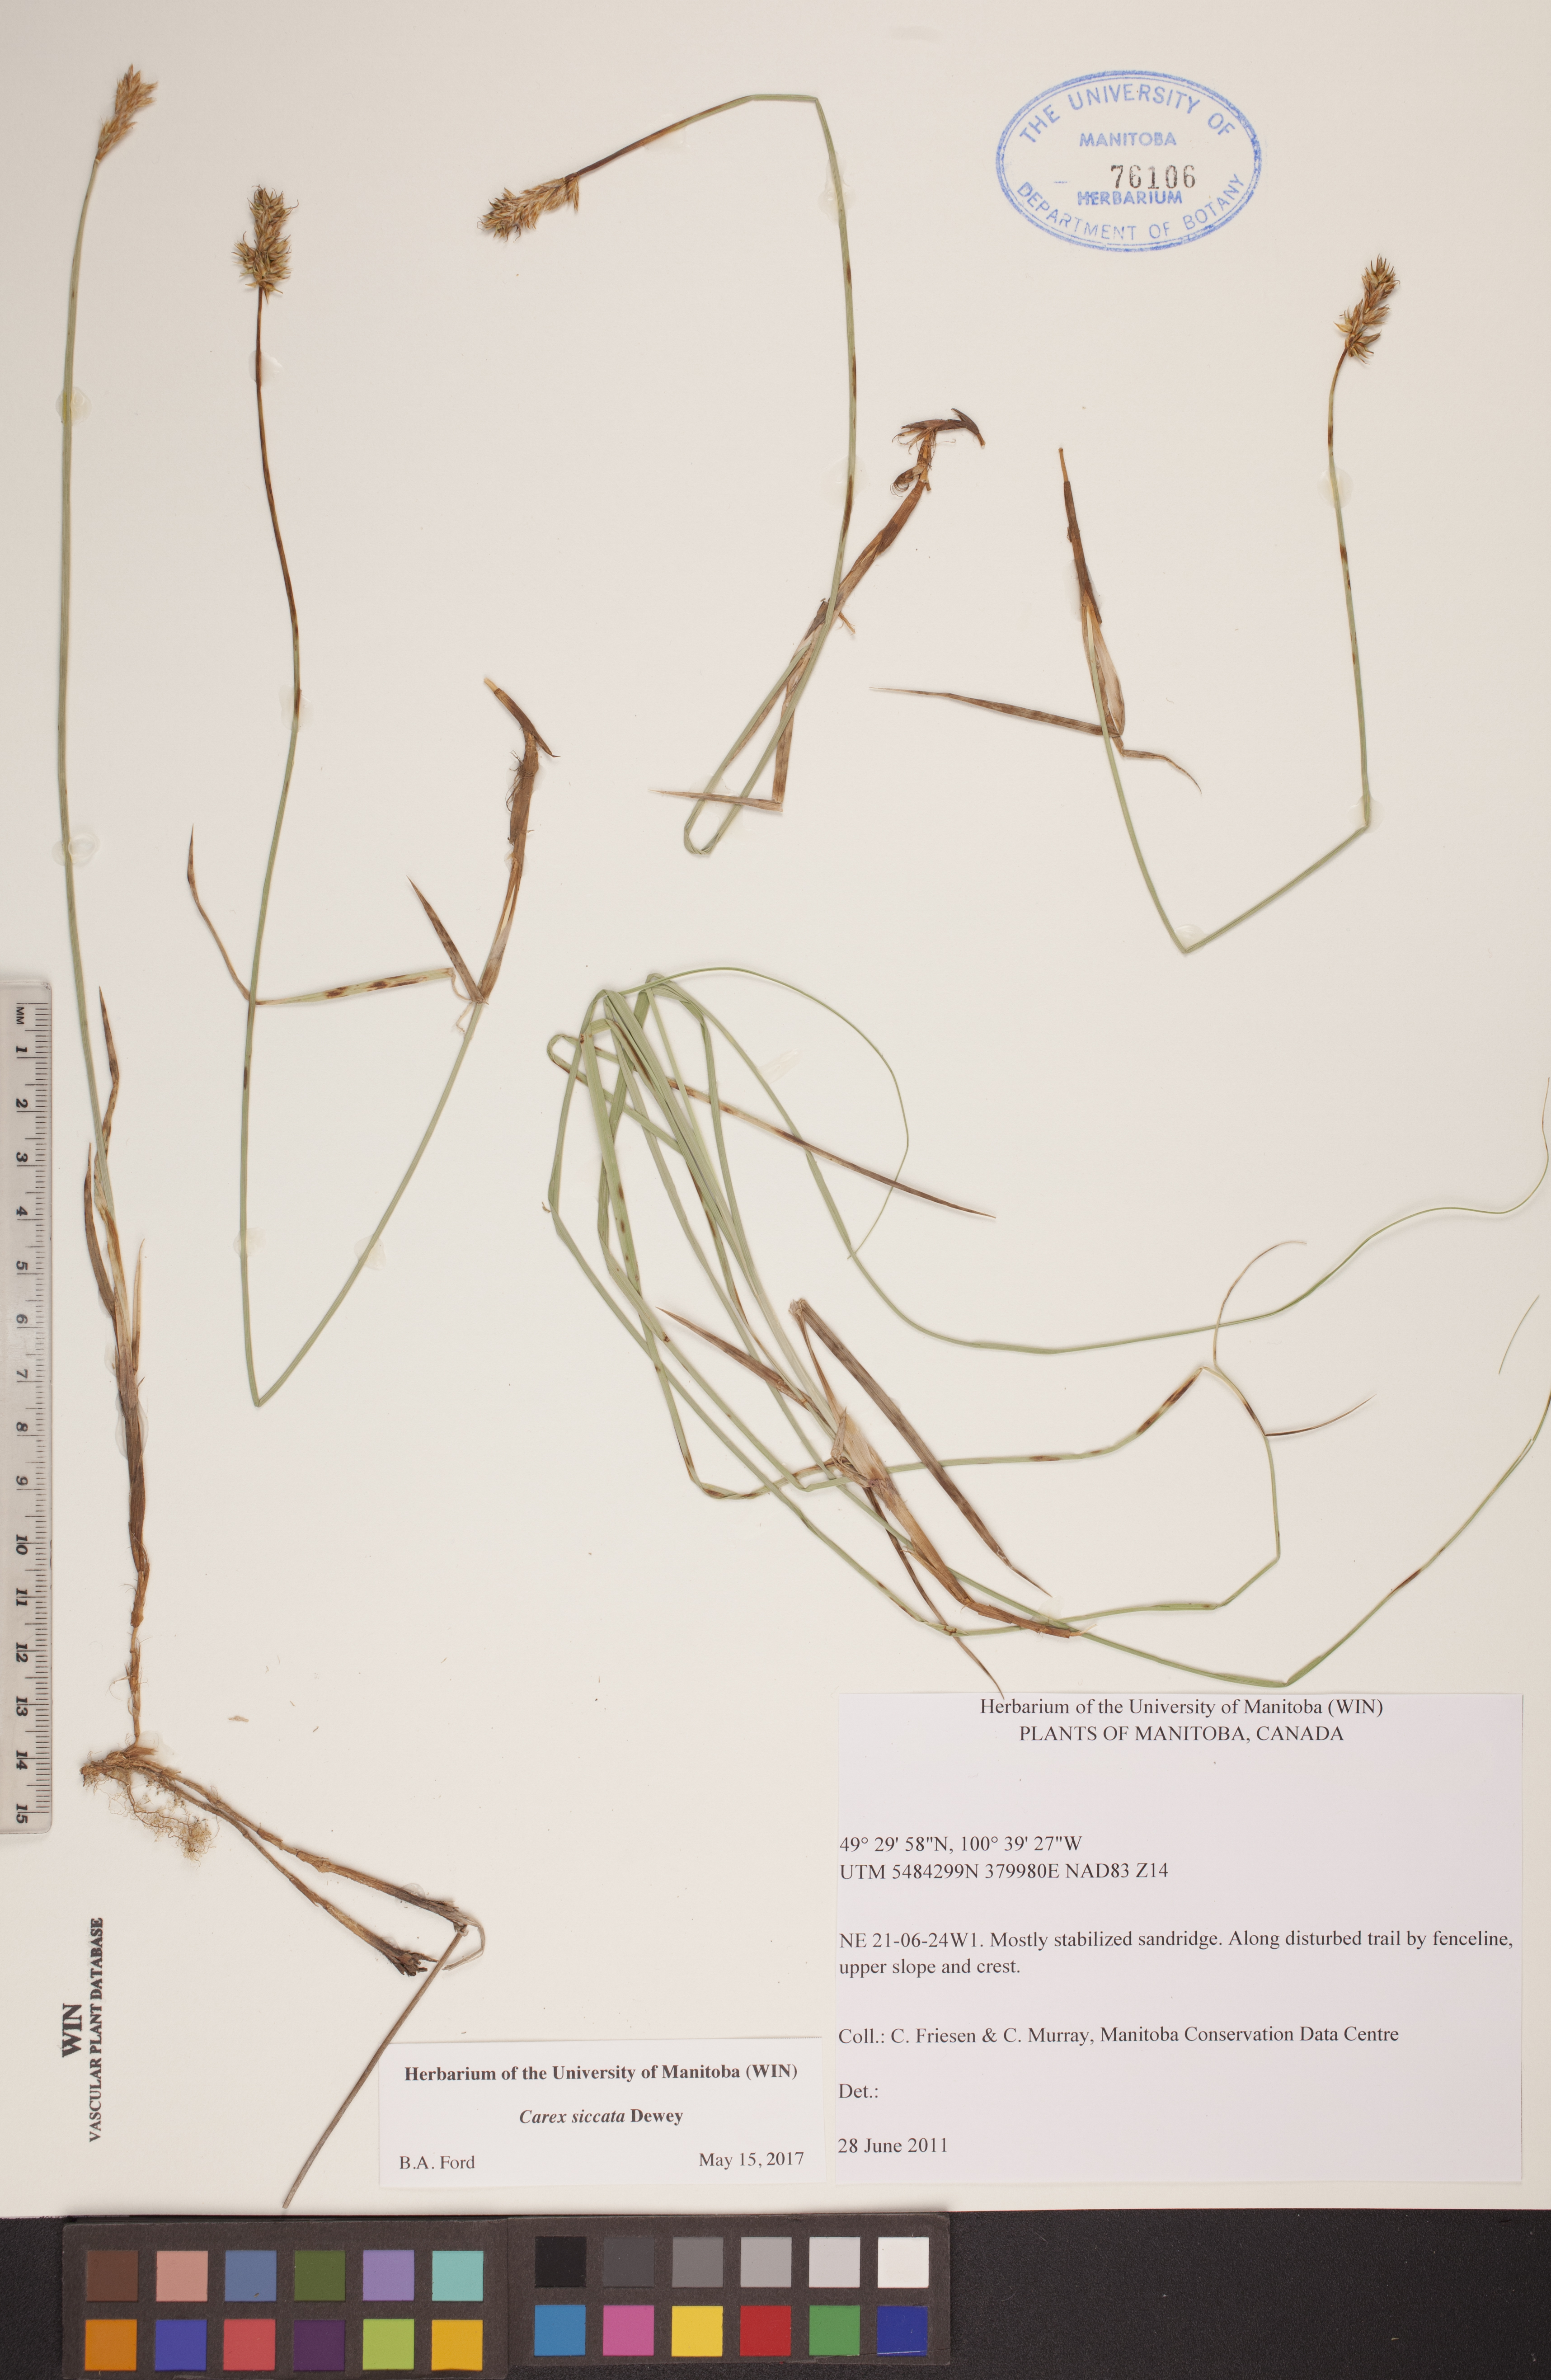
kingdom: Plantae
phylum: Tracheophyta
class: Liliopsida
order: Poales
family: Cyperaceae
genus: Carex
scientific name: Carex siccata
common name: Dry sedge
